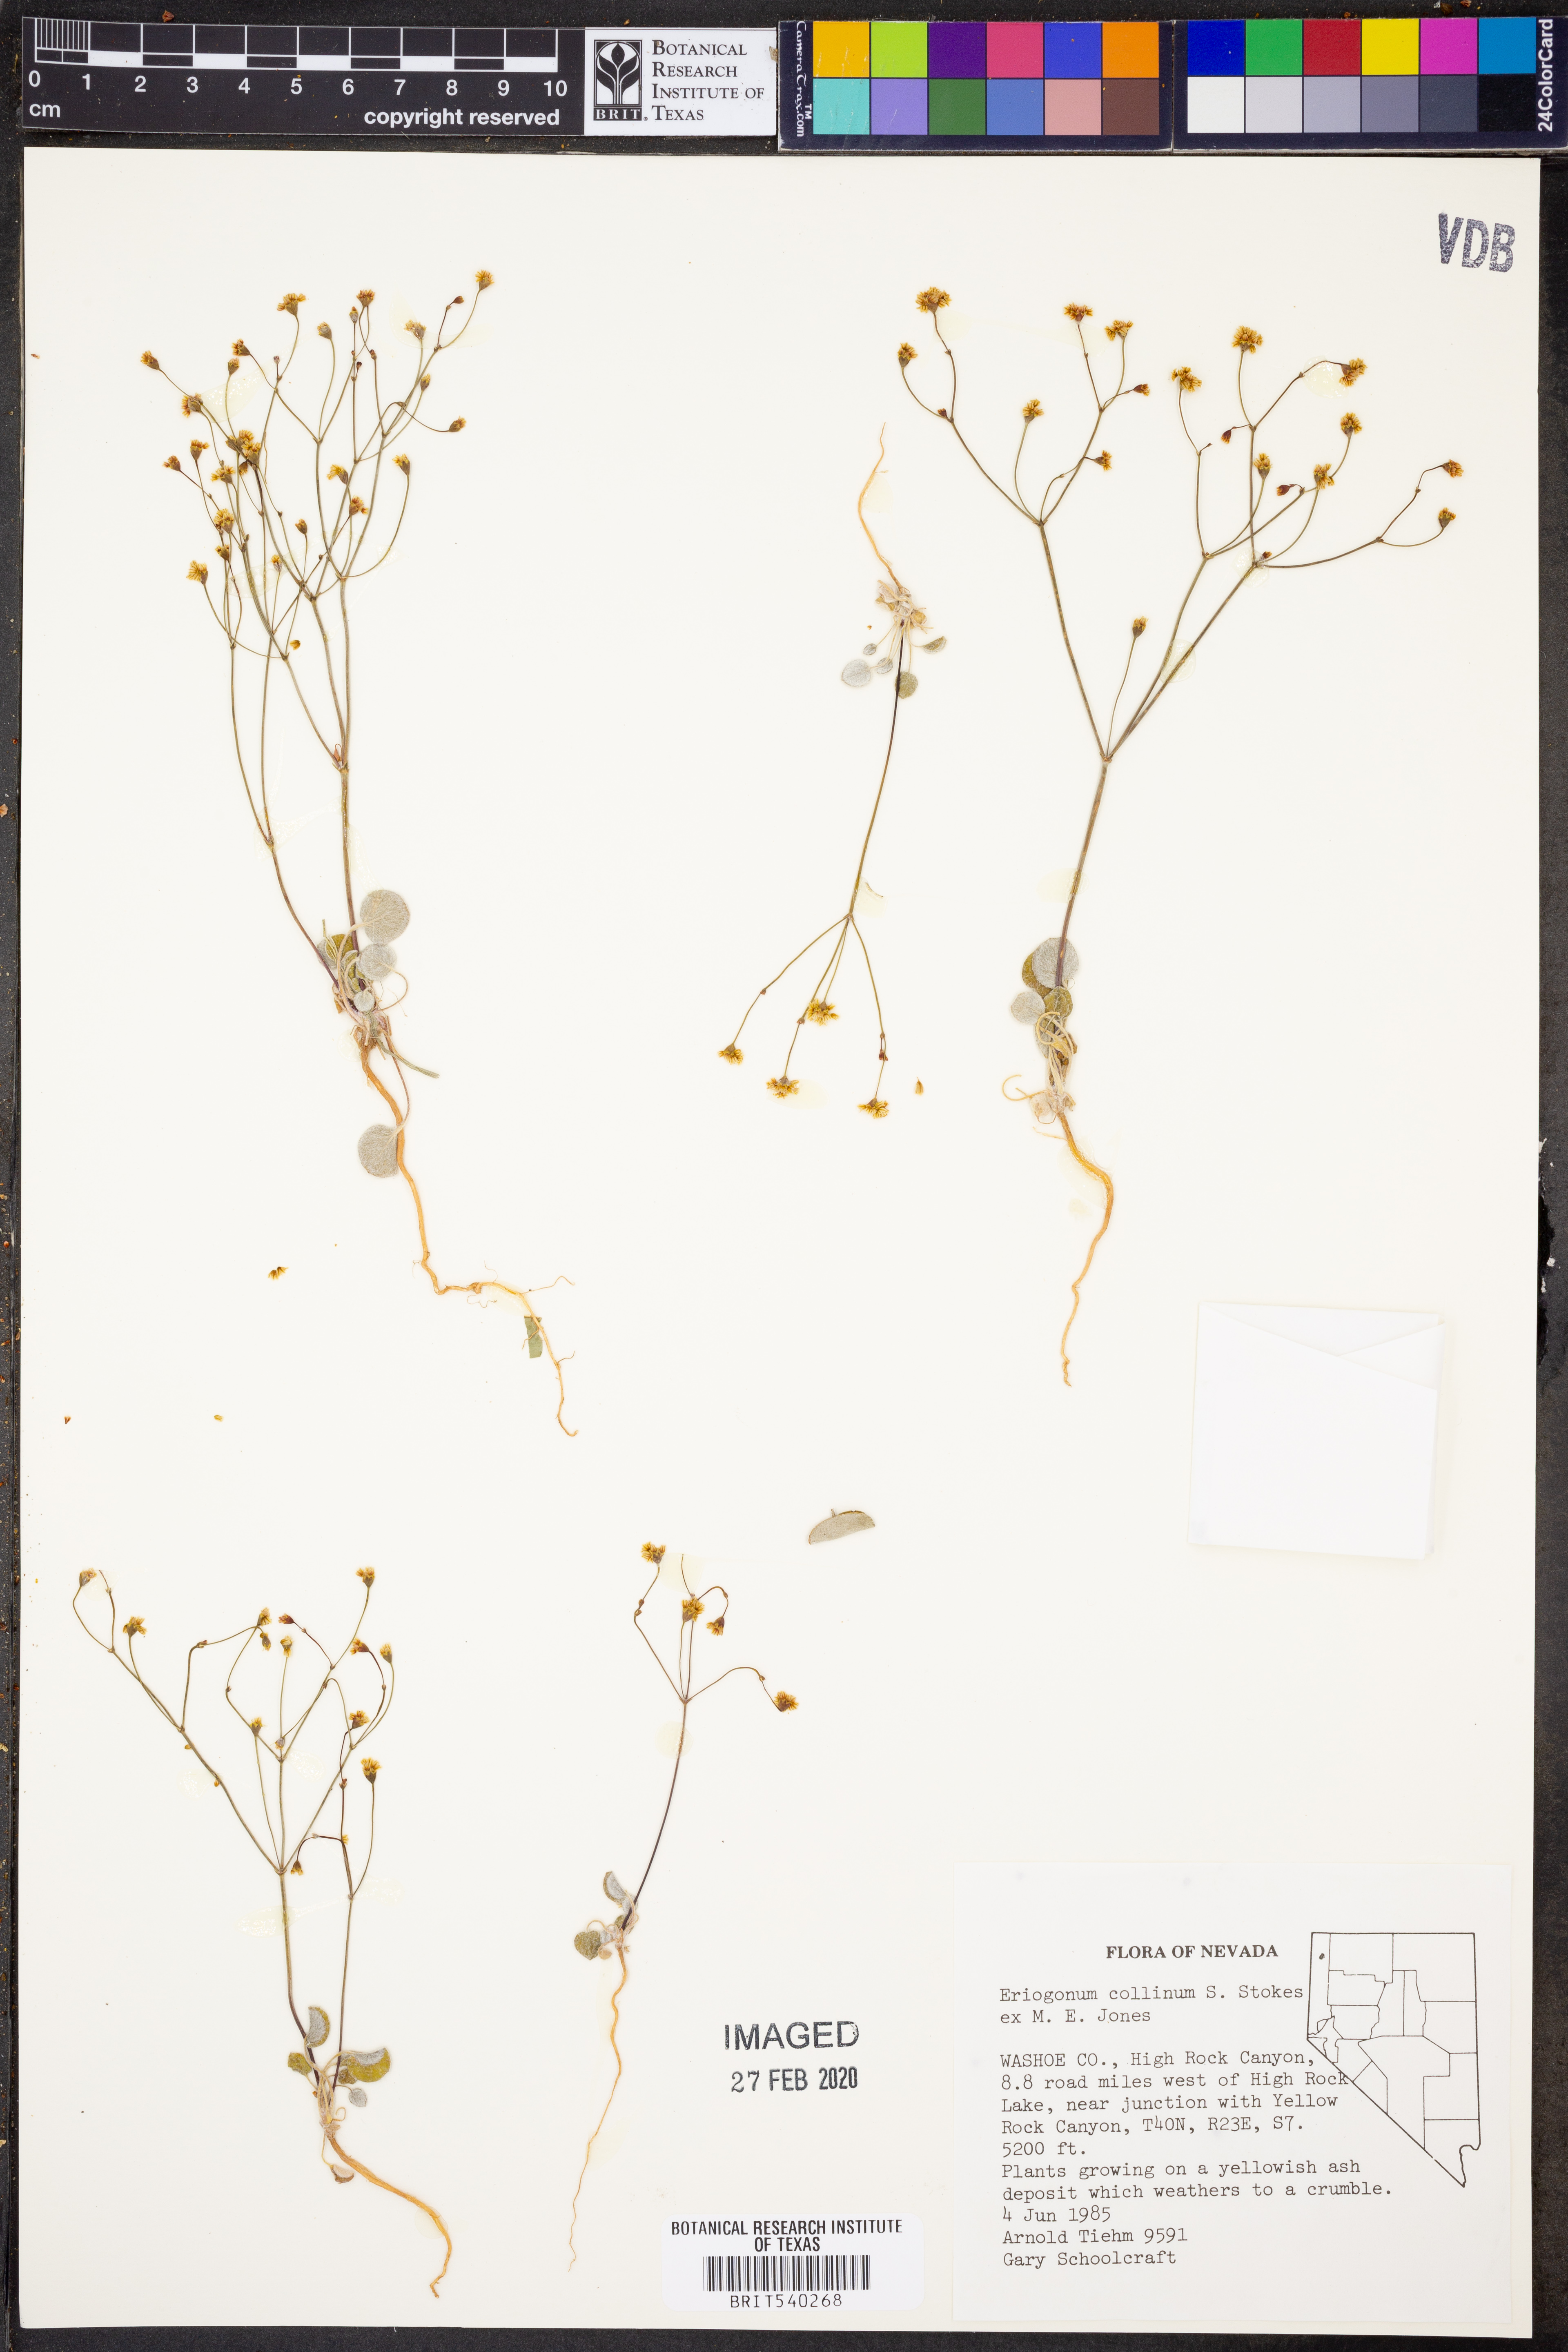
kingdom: Plantae
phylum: Tracheophyta
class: Magnoliopsida
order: Caryophyllales
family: Polygonaceae
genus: Eriogonum
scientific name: Eriogonum collinum
